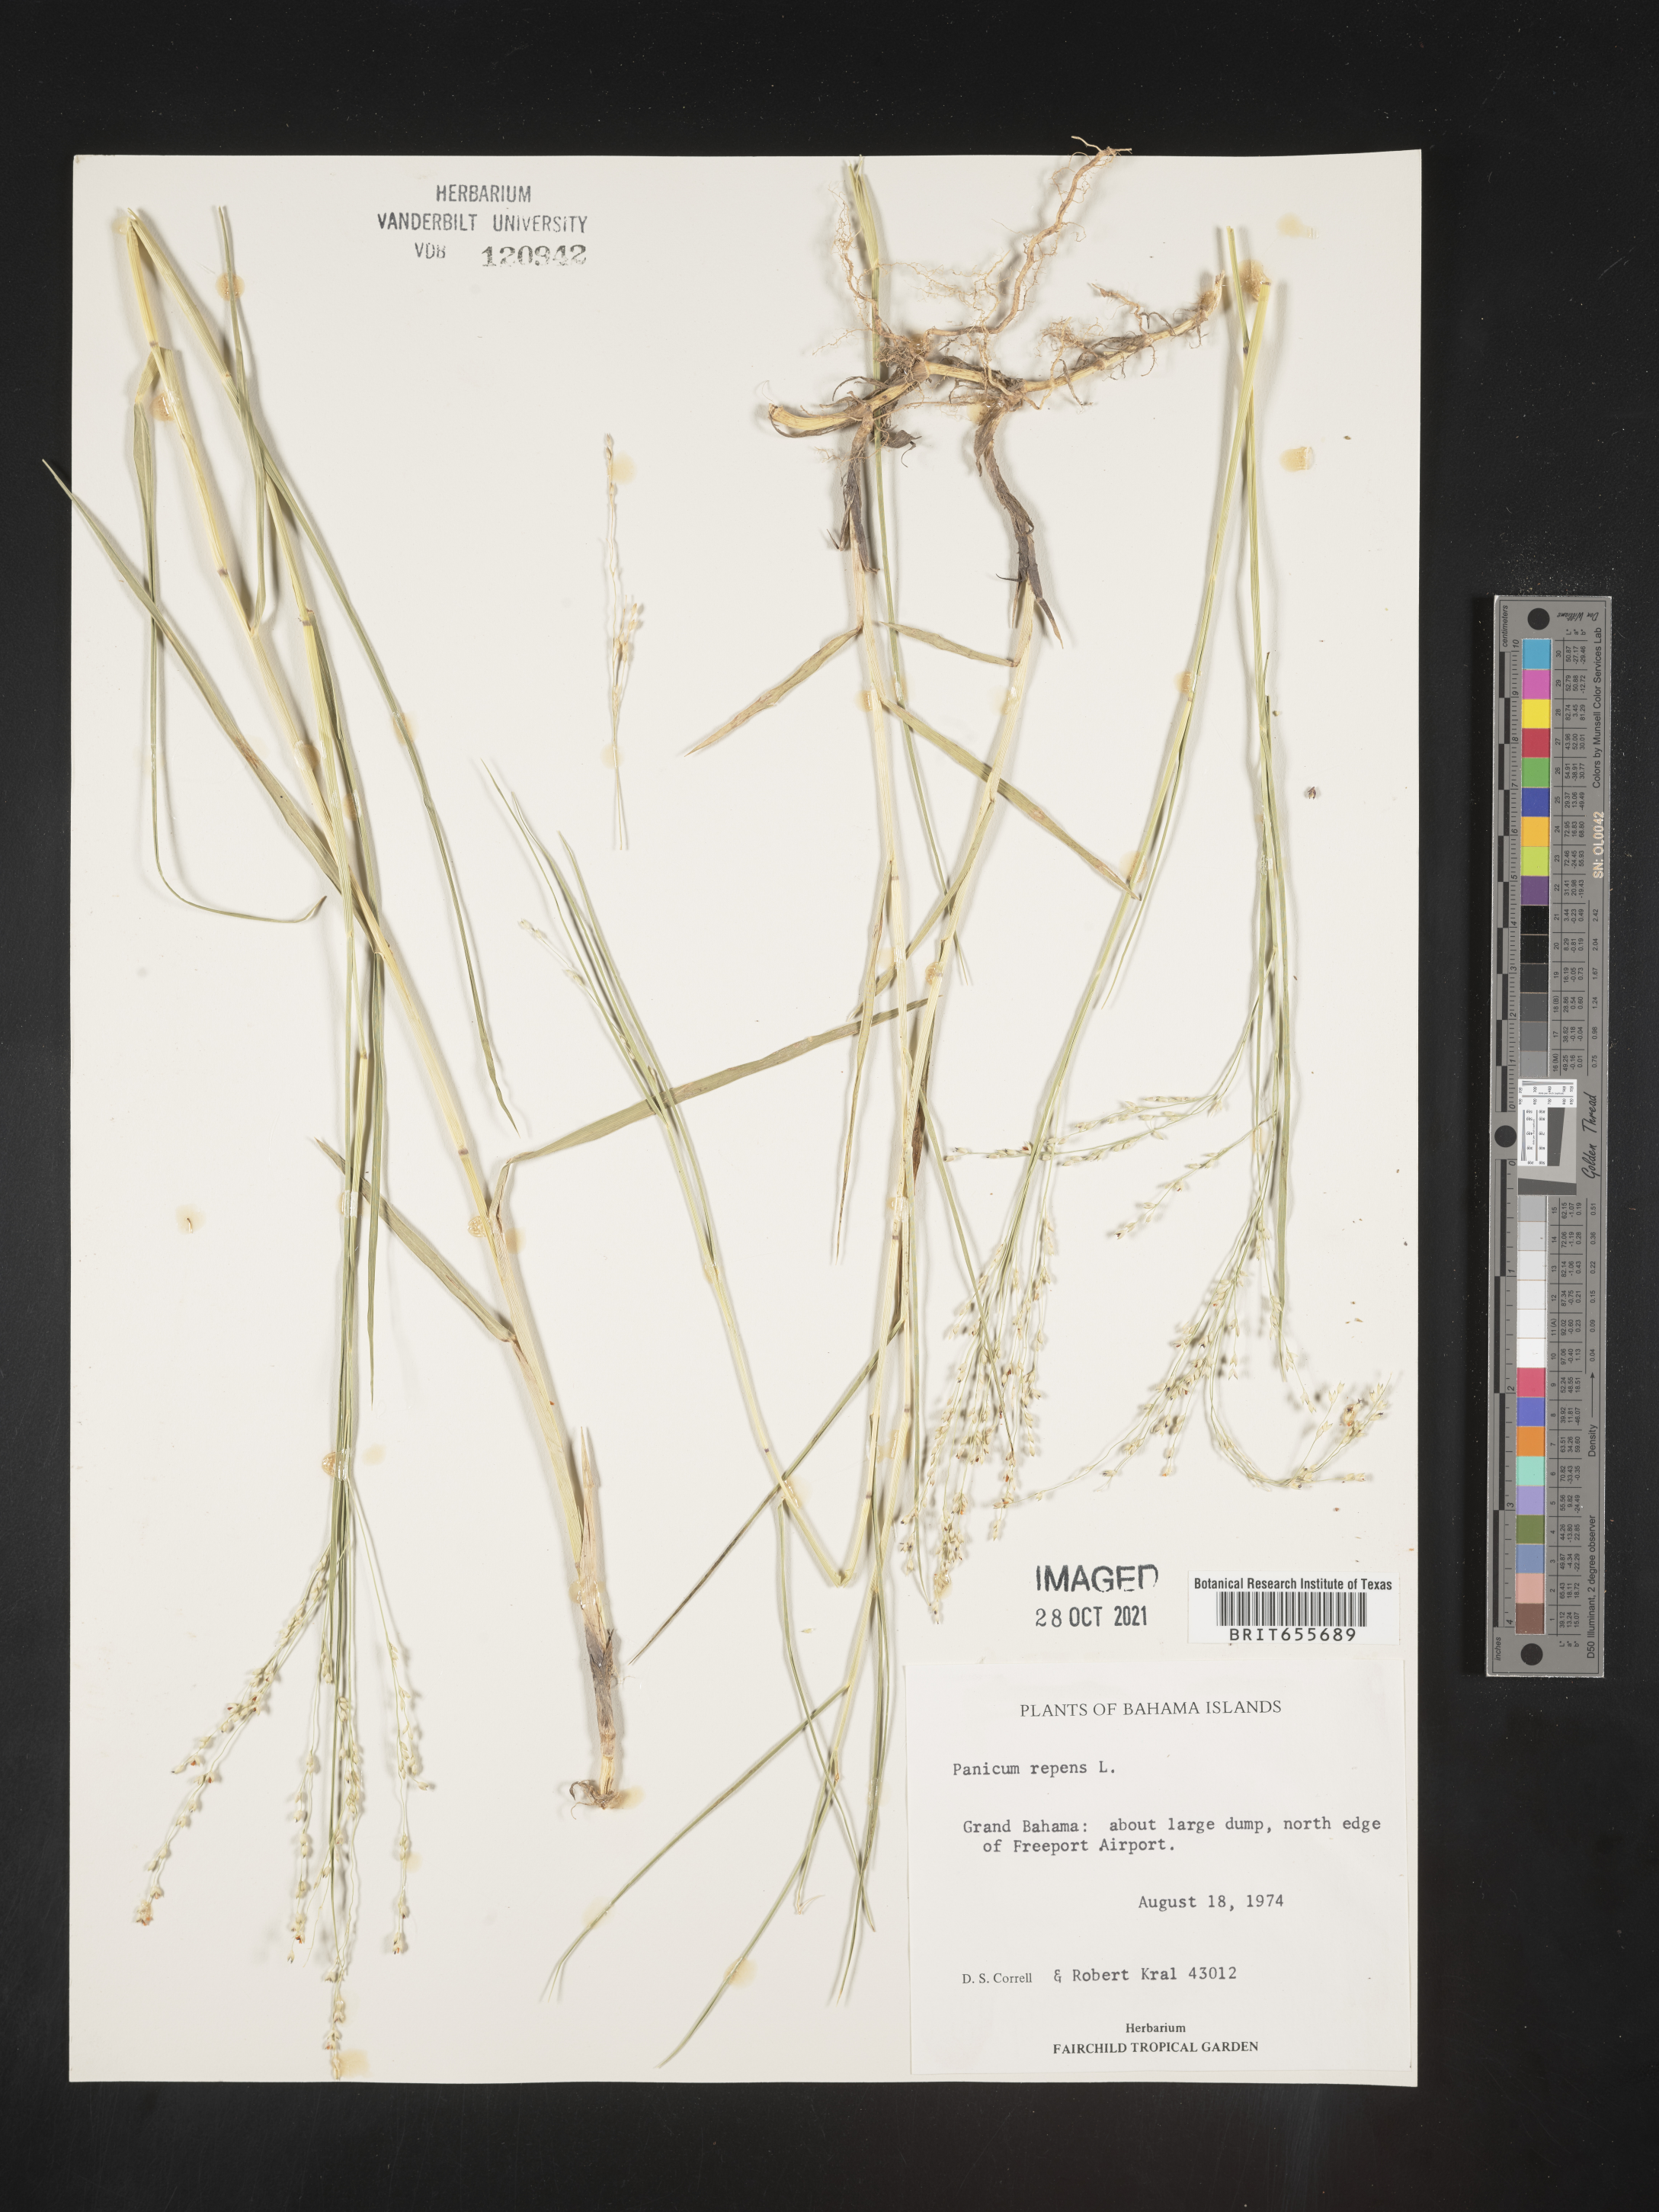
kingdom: Plantae
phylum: Tracheophyta
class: Liliopsida
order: Poales
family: Poaceae
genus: Panicum
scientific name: Panicum
